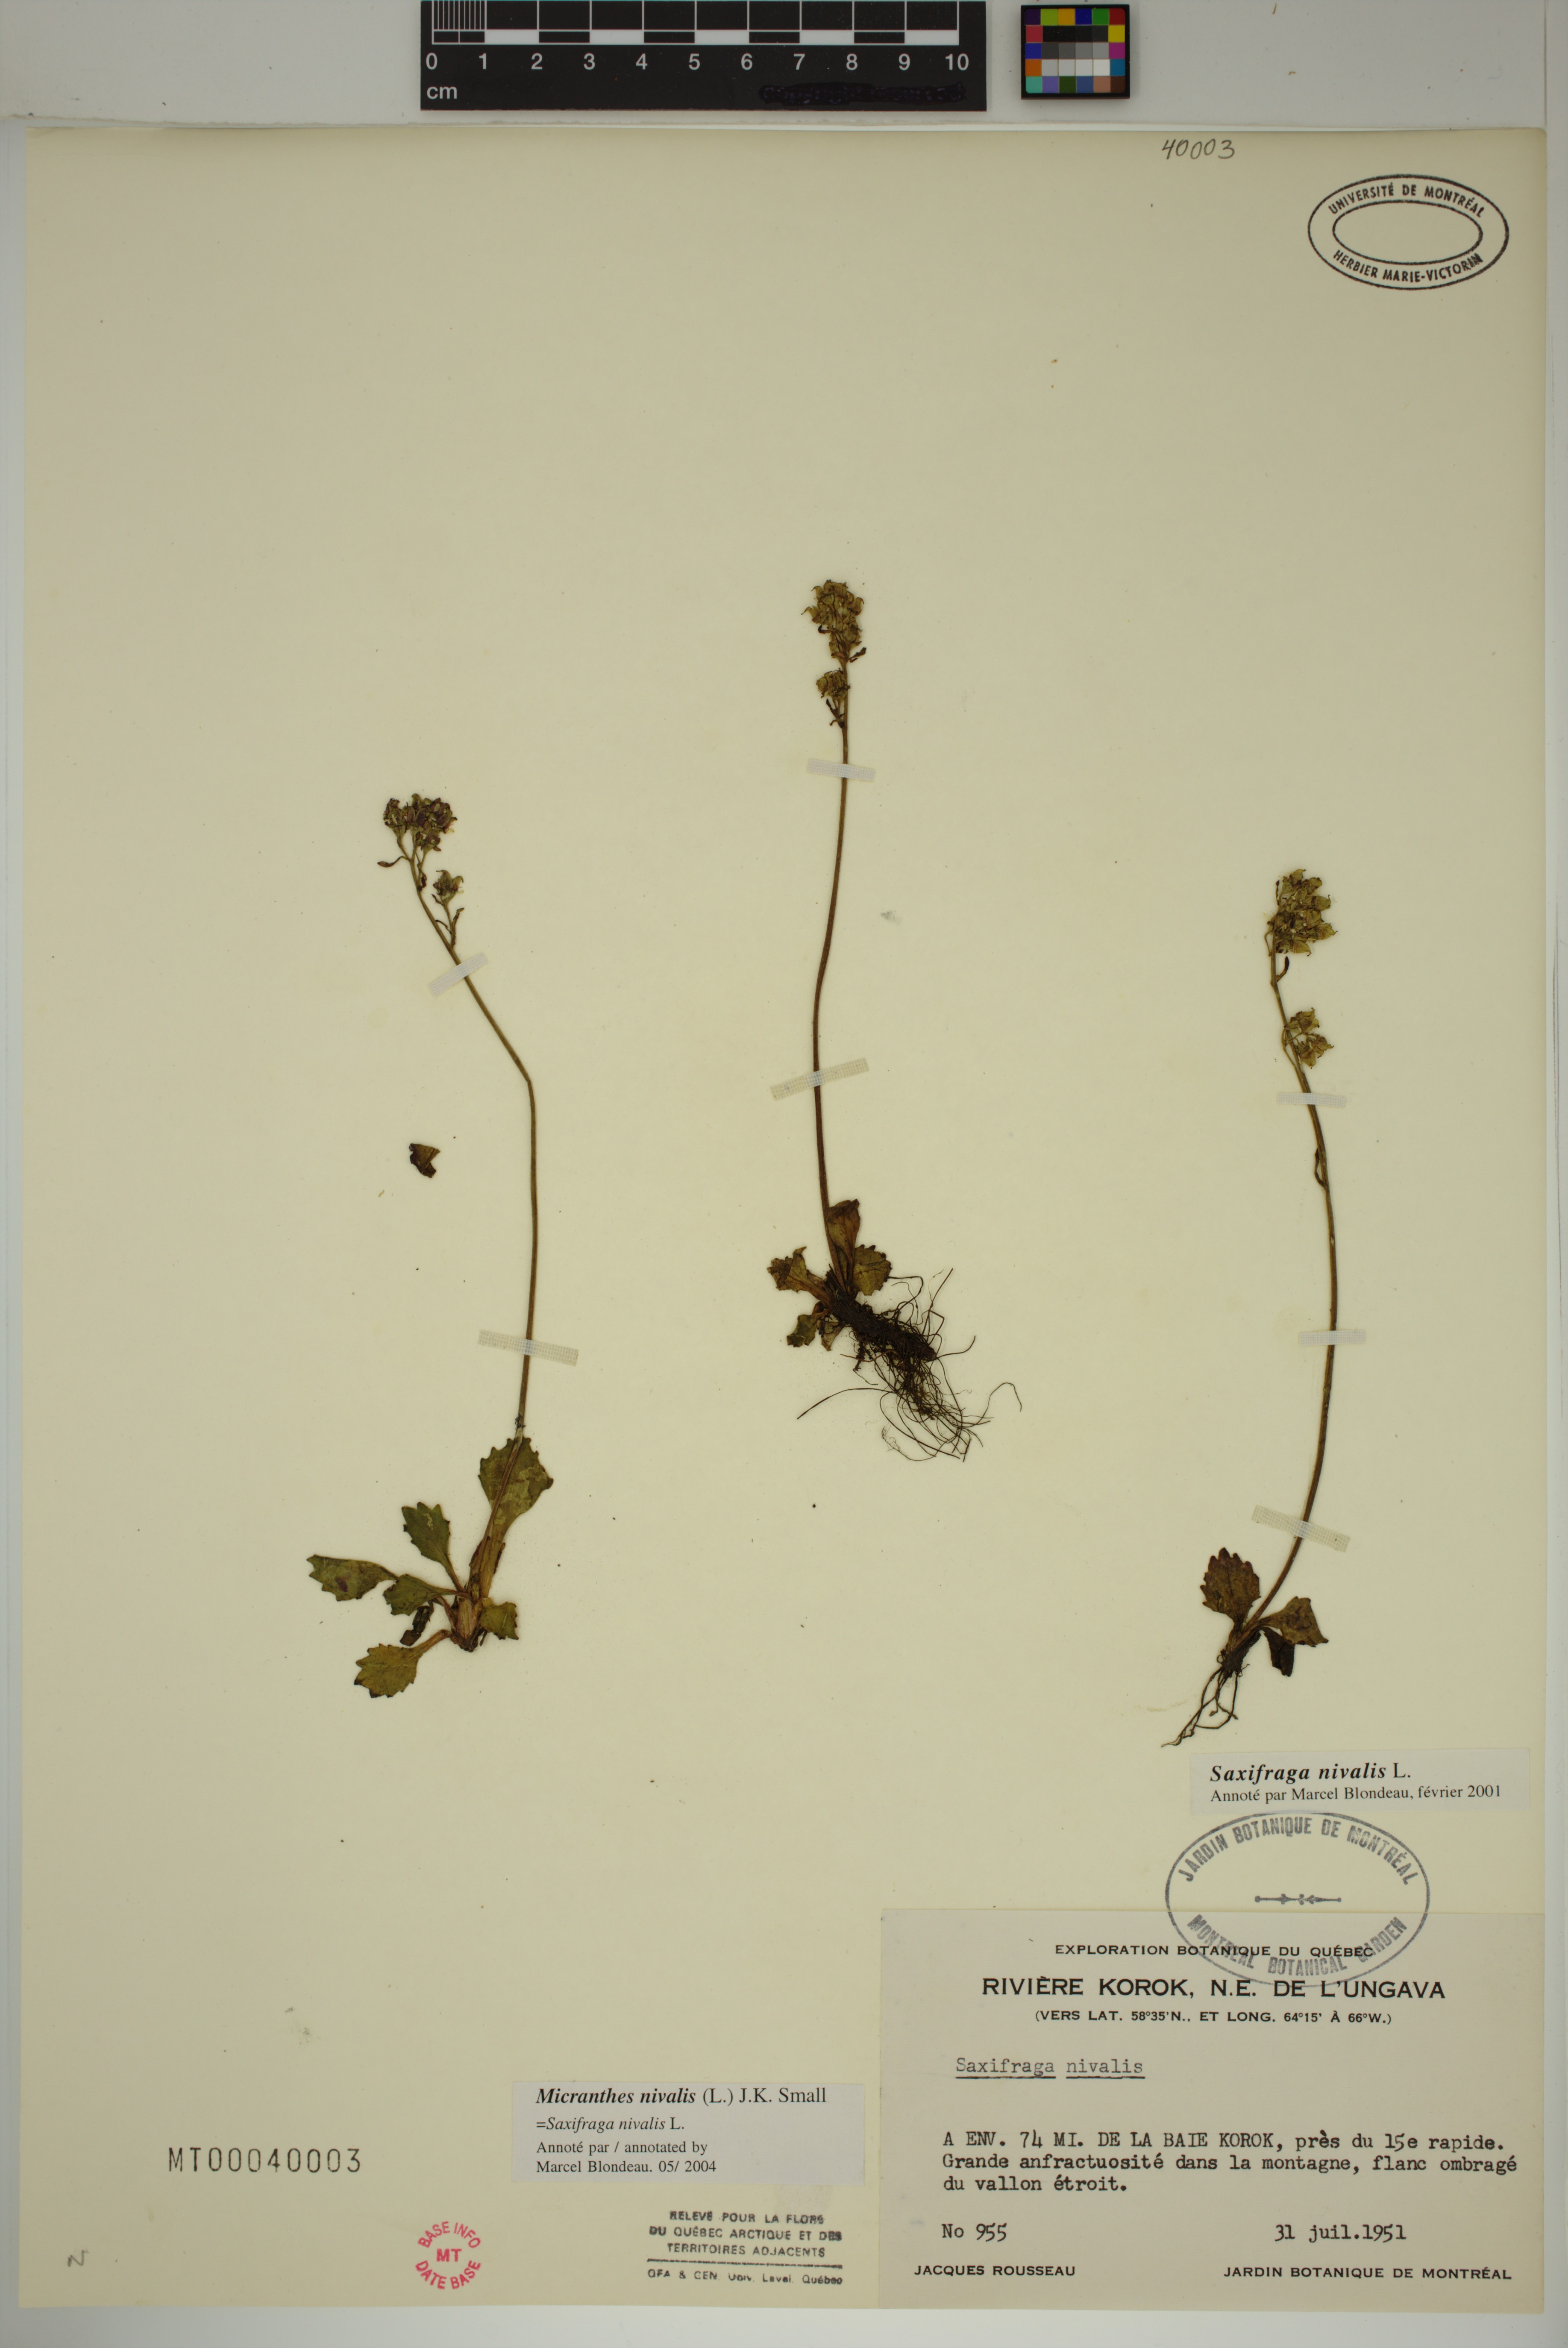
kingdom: Plantae
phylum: Tracheophyta
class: Magnoliopsida
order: Saxifragales
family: Saxifragaceae
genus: Micranthes
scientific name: Micranthes nivalis
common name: Alpine saxifrage
